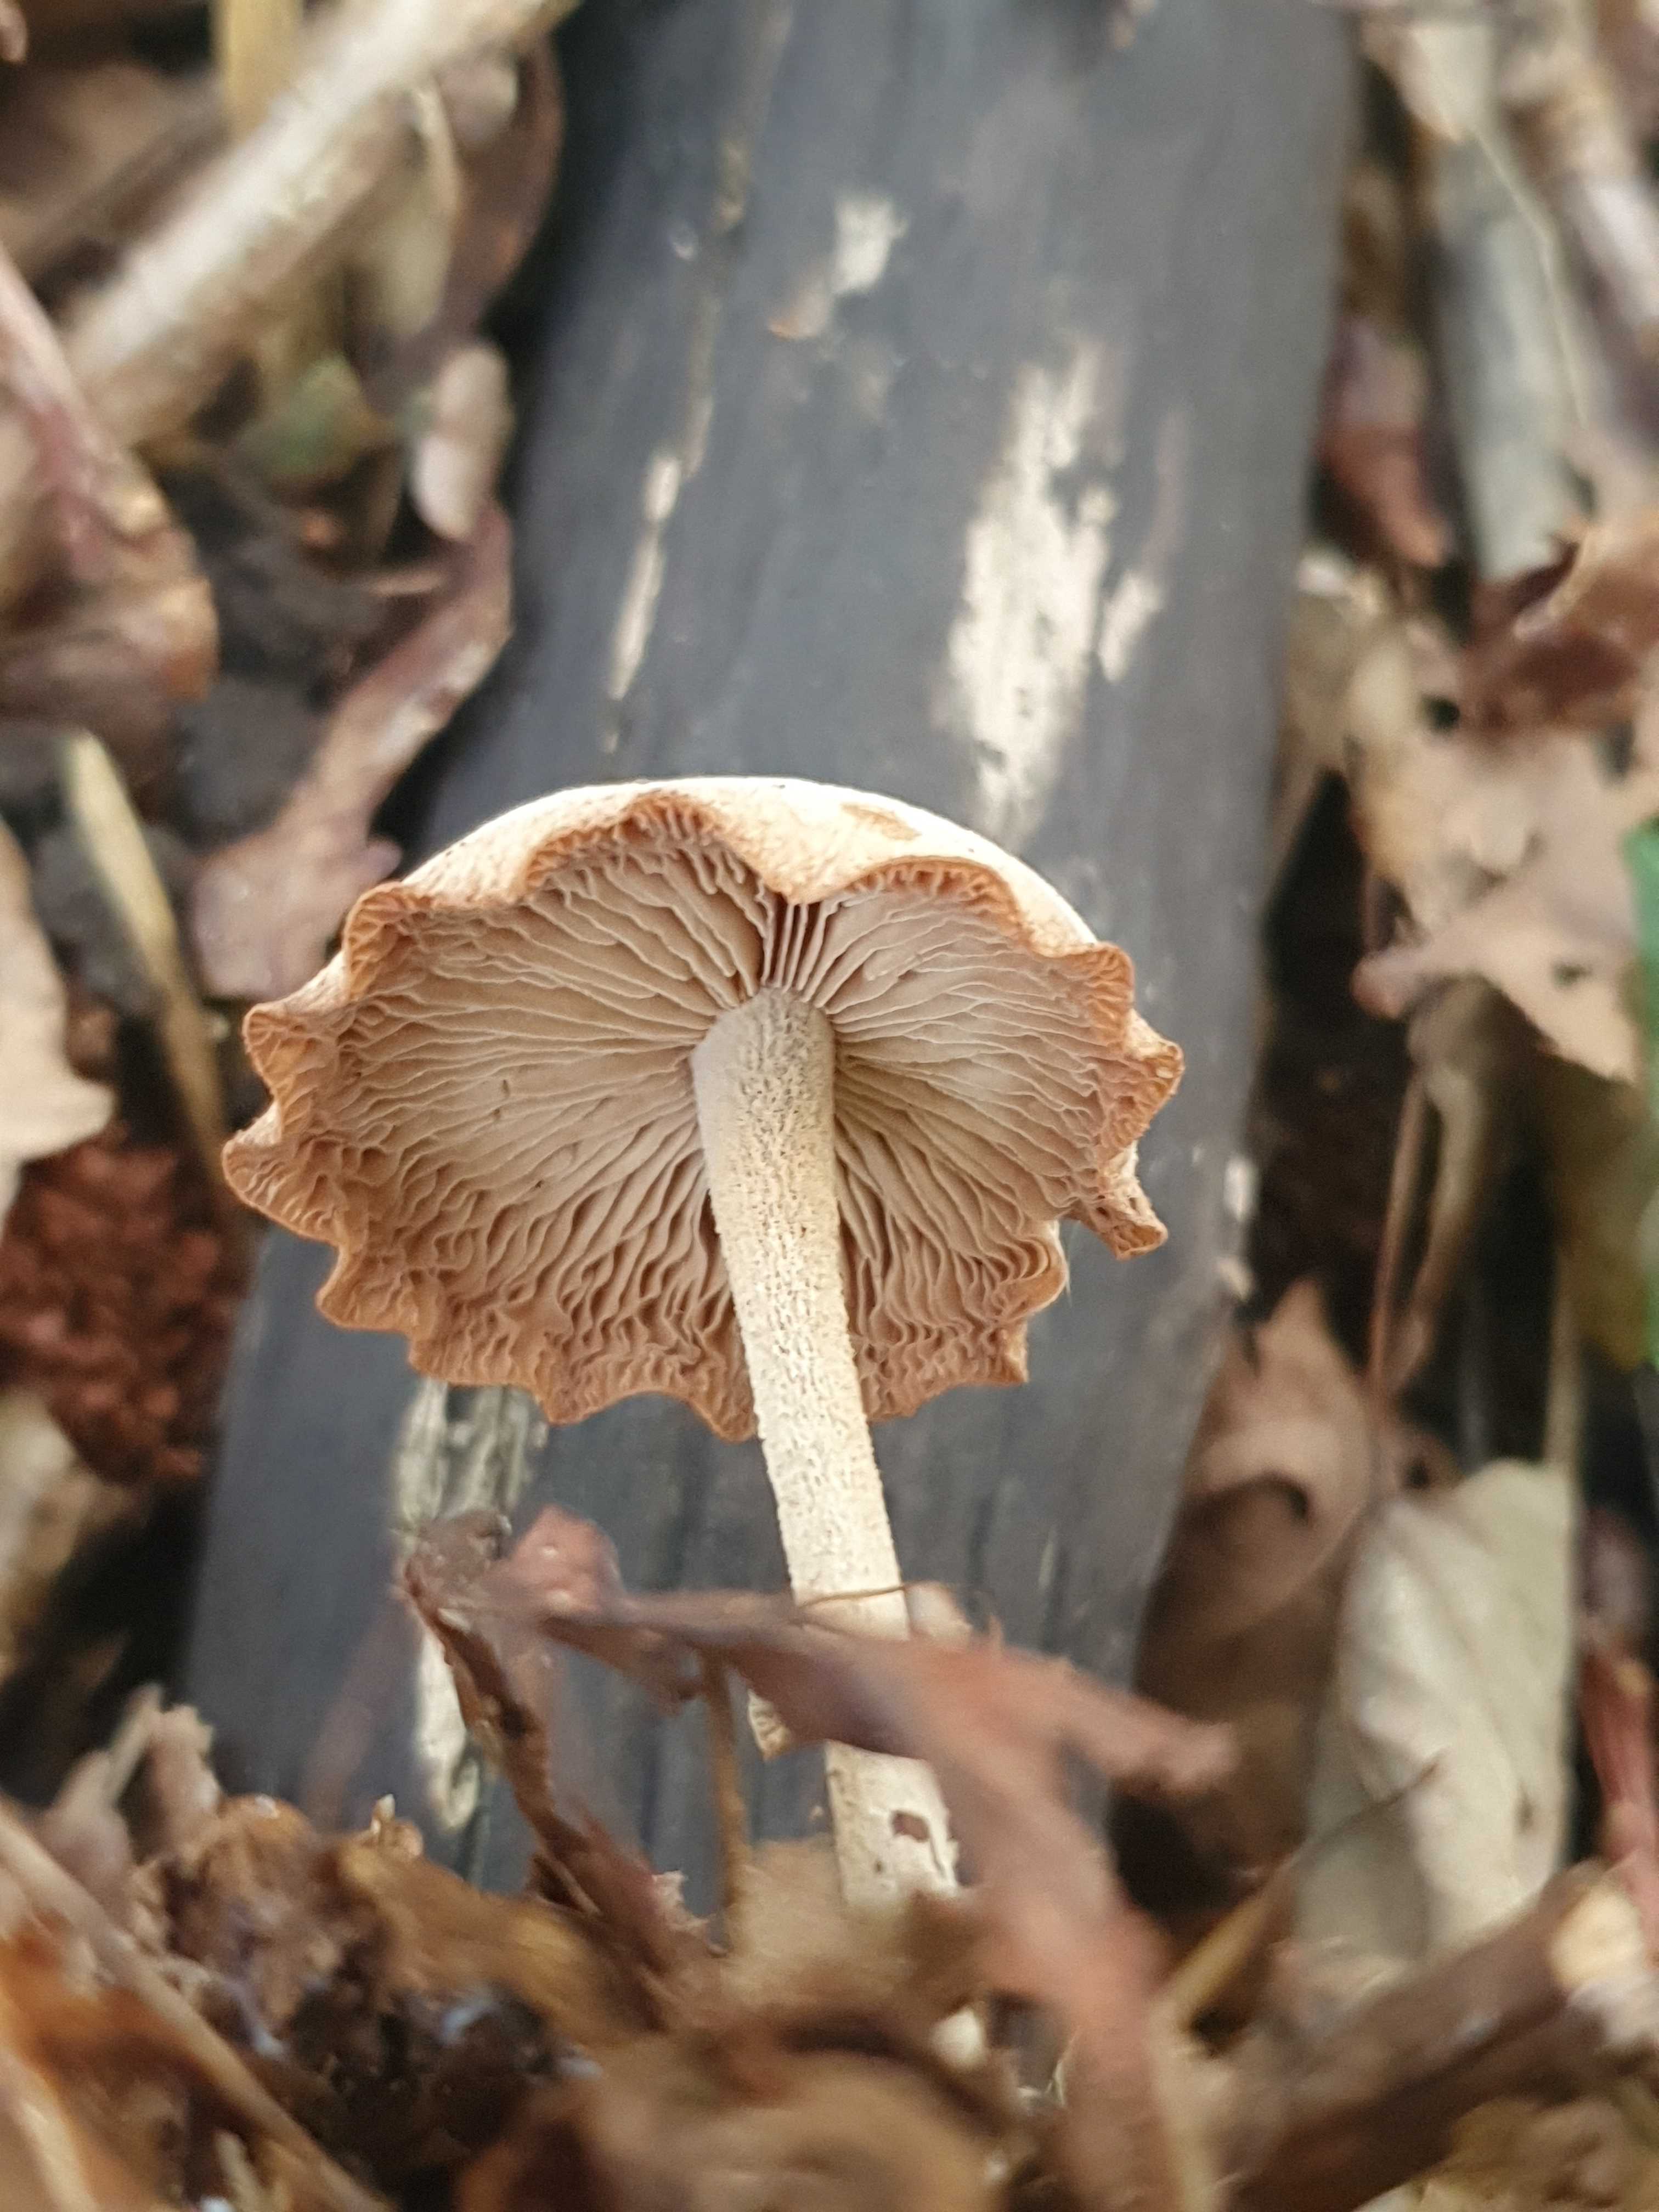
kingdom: Fungi
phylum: Basidiomycota
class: Agaricomycetes
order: Agaricales
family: Omphalotaceae
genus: Collybiopsis
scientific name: Collybiopsis confluens
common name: knippe-fladhat
